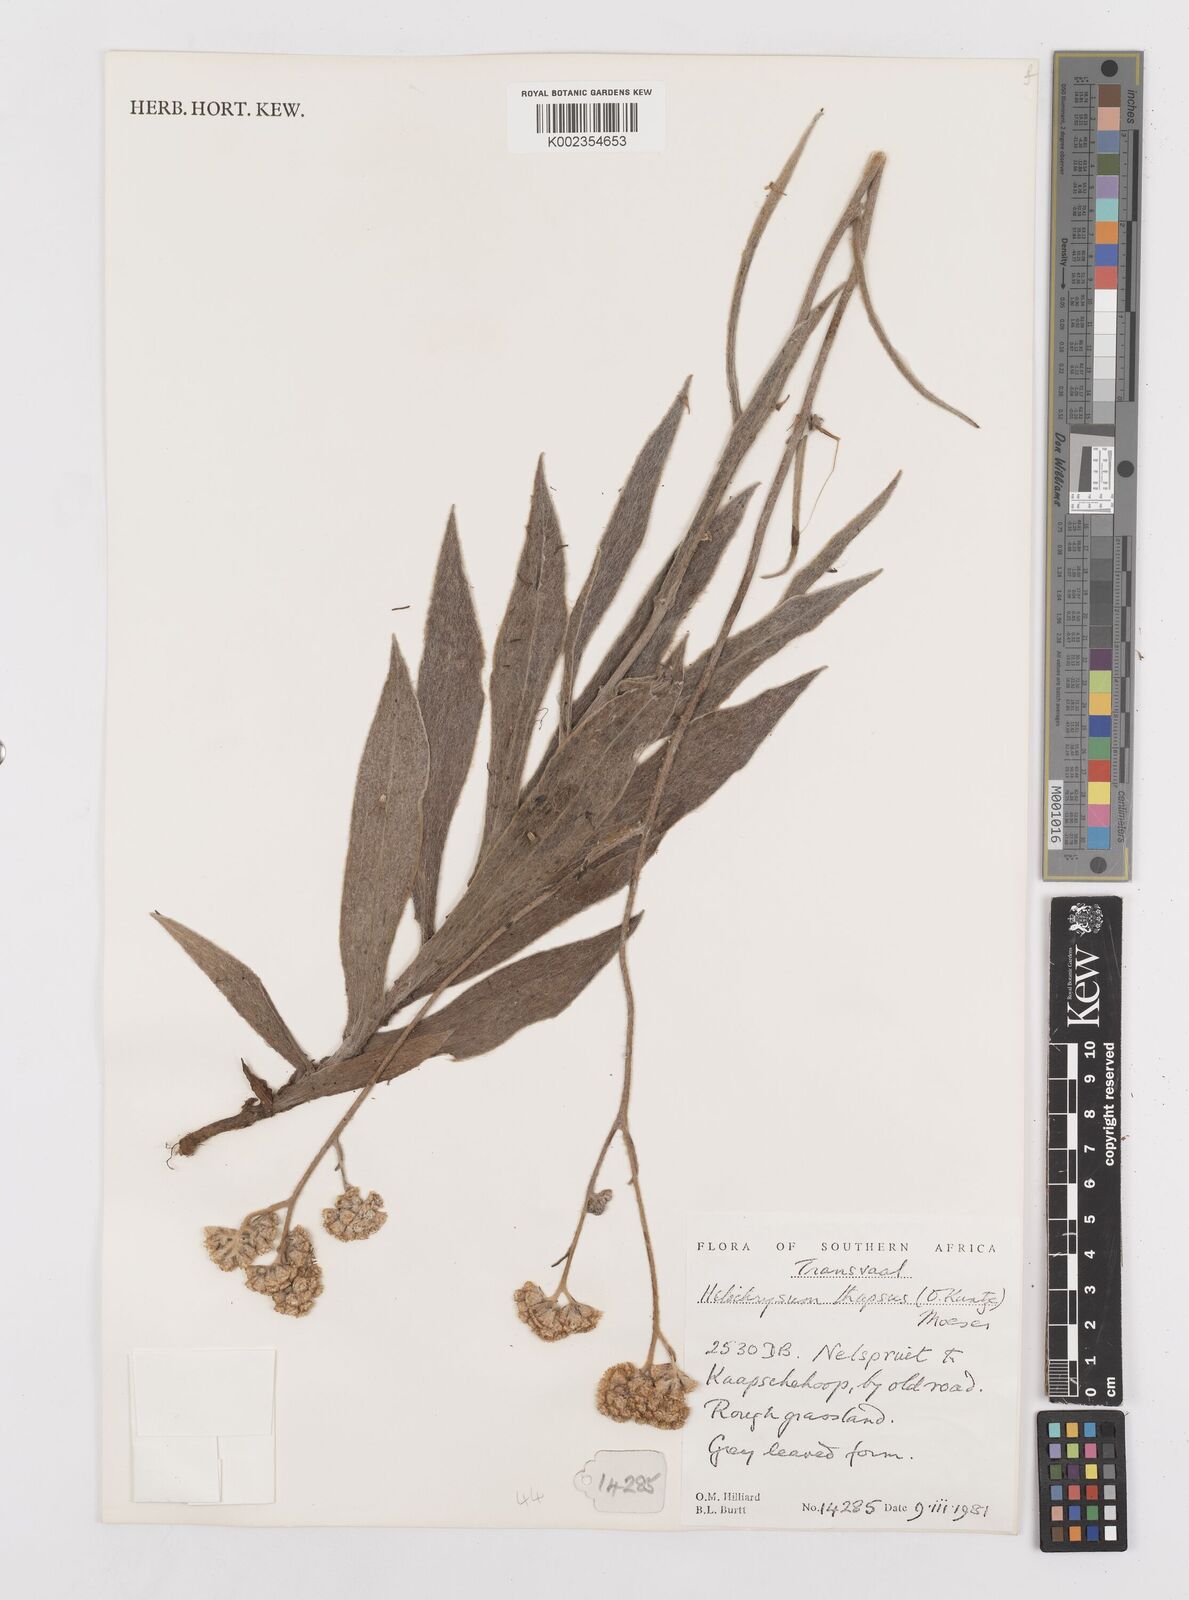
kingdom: Plantae
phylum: Tracheophyta
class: Magnoliopsida
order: Asterales
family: Asteraceae
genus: Helichrysum
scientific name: Helichrysum thapsus
